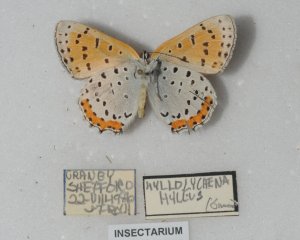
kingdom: Animalia
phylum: Arthropoda
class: Insecta
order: Lepidoptera
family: Sesiidae
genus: Sesia
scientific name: Sesia Lycaena hyllus
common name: Bronze Copper
